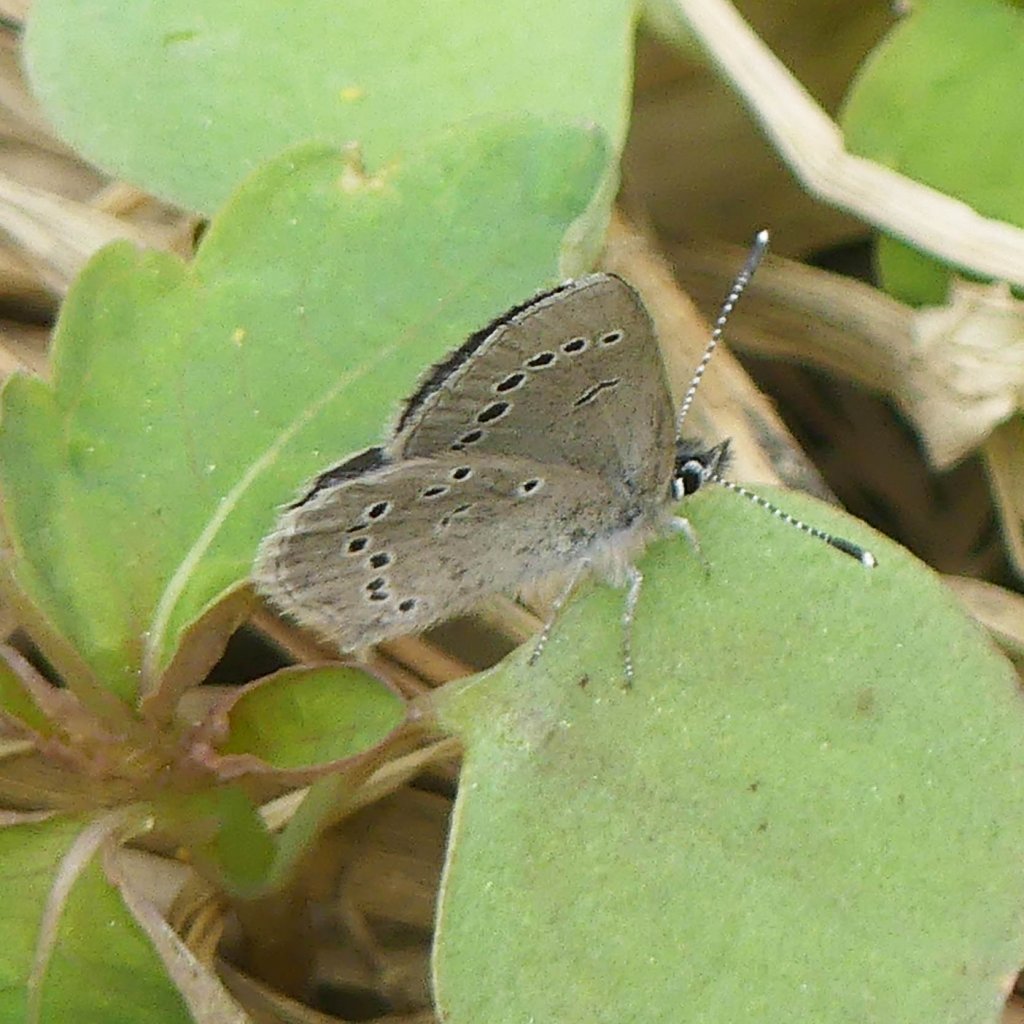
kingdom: Animalia
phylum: Arthropoda
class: Insecta
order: Lepidoptera
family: Lycaenidae
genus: Glaucopsyche
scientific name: Glaucopsyche lygdamus
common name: Silvery Blue
